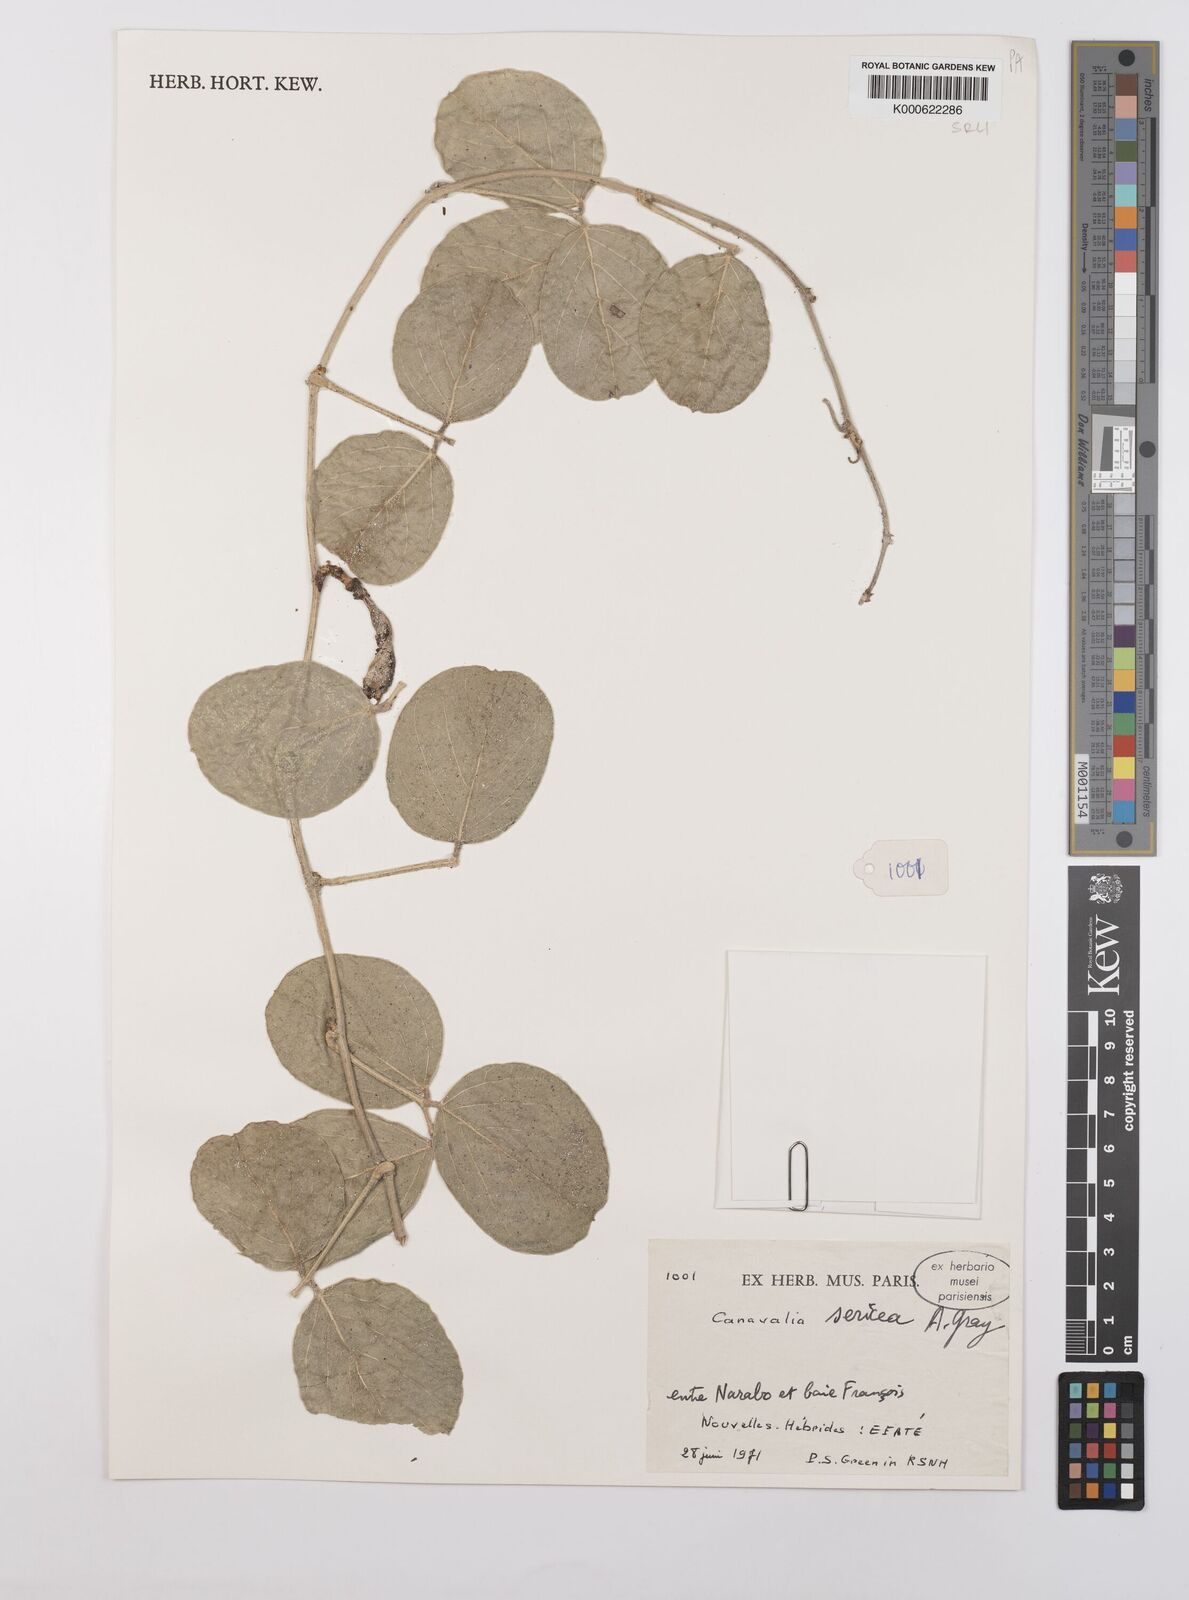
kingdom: Plantae
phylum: Tracheophyta
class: Magnoliopsida
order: Fabales
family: Fabaceae
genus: Canavalia
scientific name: Canavalia sericea
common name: Silky jackbean
